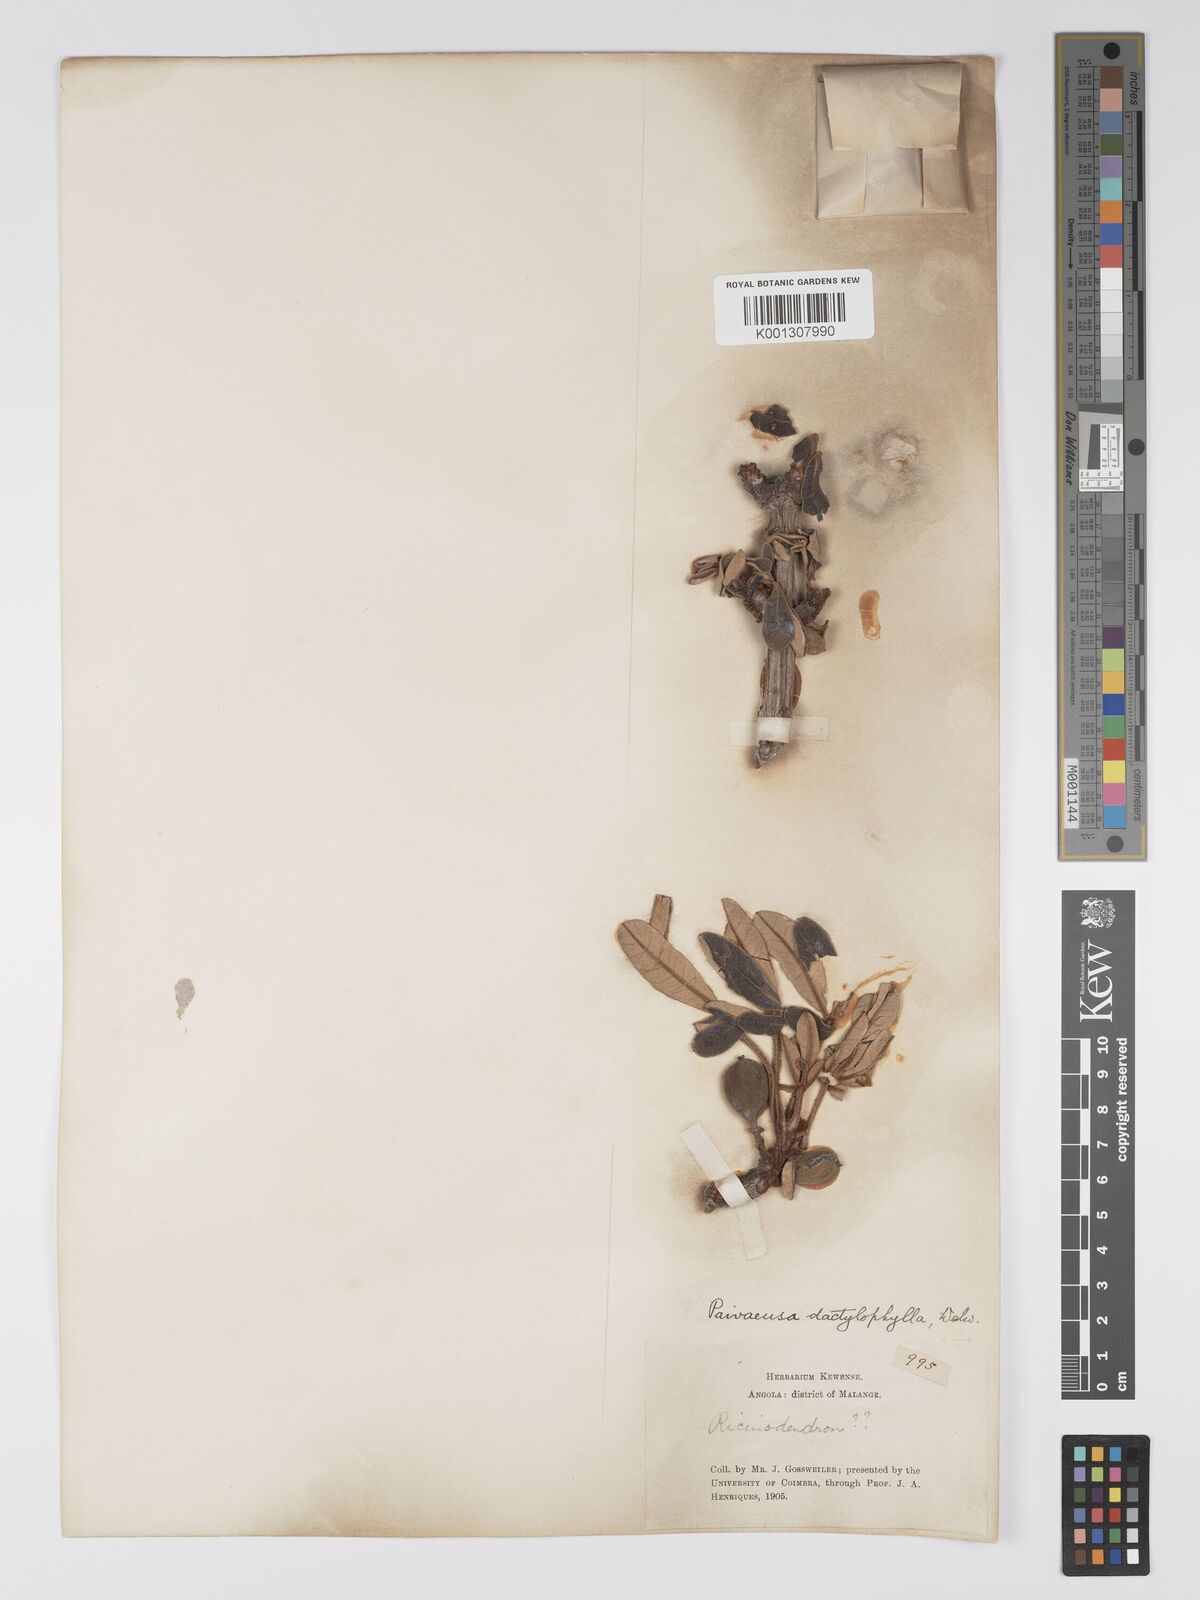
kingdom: Plantae
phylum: Tracheophyta
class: Magnoliopsida
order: Malpighiales
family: Picrodendraceae
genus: Oldfieldia
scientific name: Oldfieldia dactylophylla
